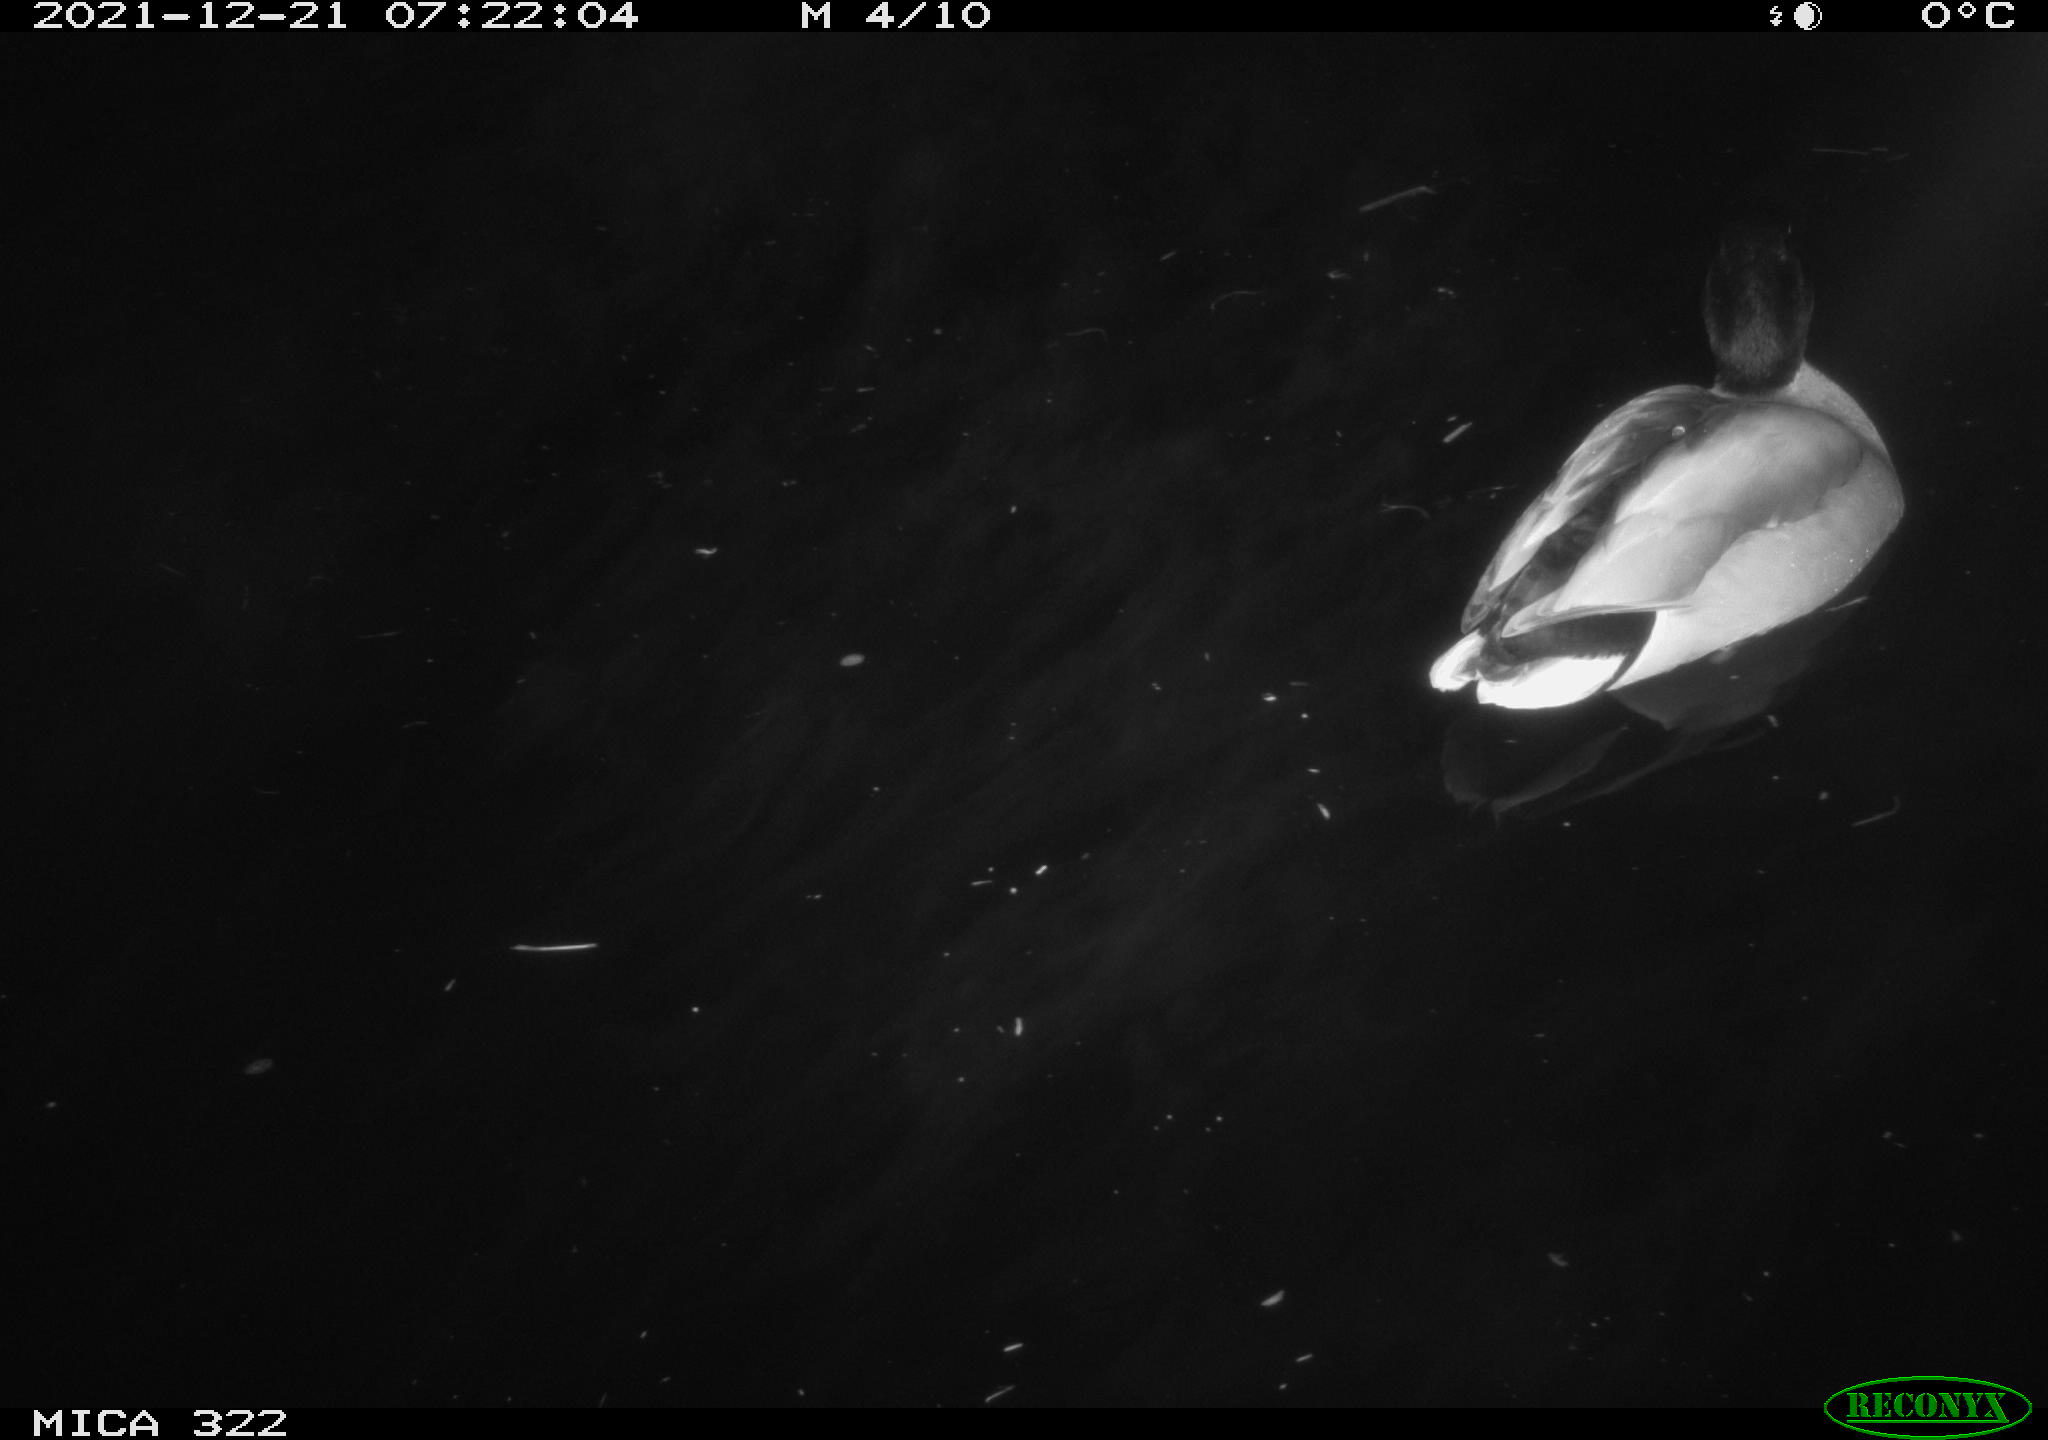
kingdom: Animalia
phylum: Chordata
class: Aves
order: Anseriformes
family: Anatidae
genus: Anas
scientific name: Anas
